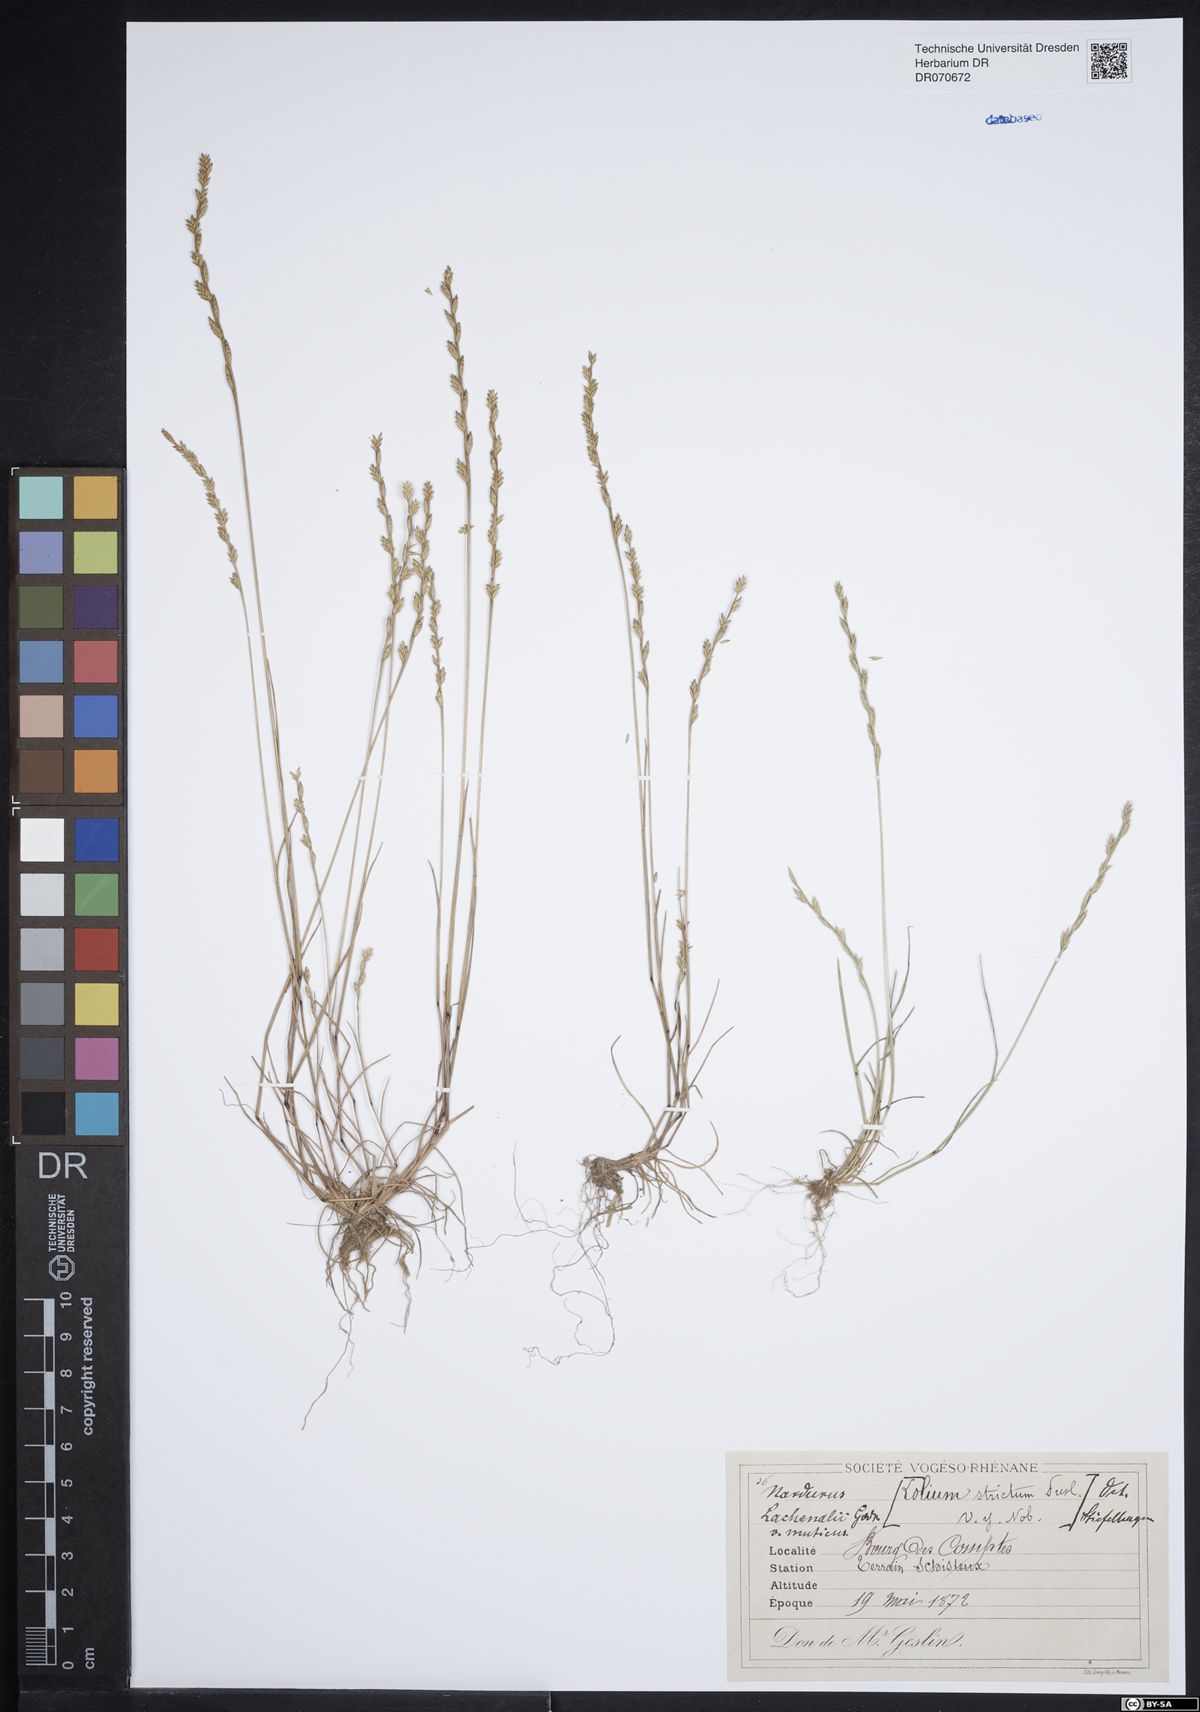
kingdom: Plantae
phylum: Tracheophyta
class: Liliopsida
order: Poales
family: Poaceae
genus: Festuca
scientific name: Festuca lachenalii
